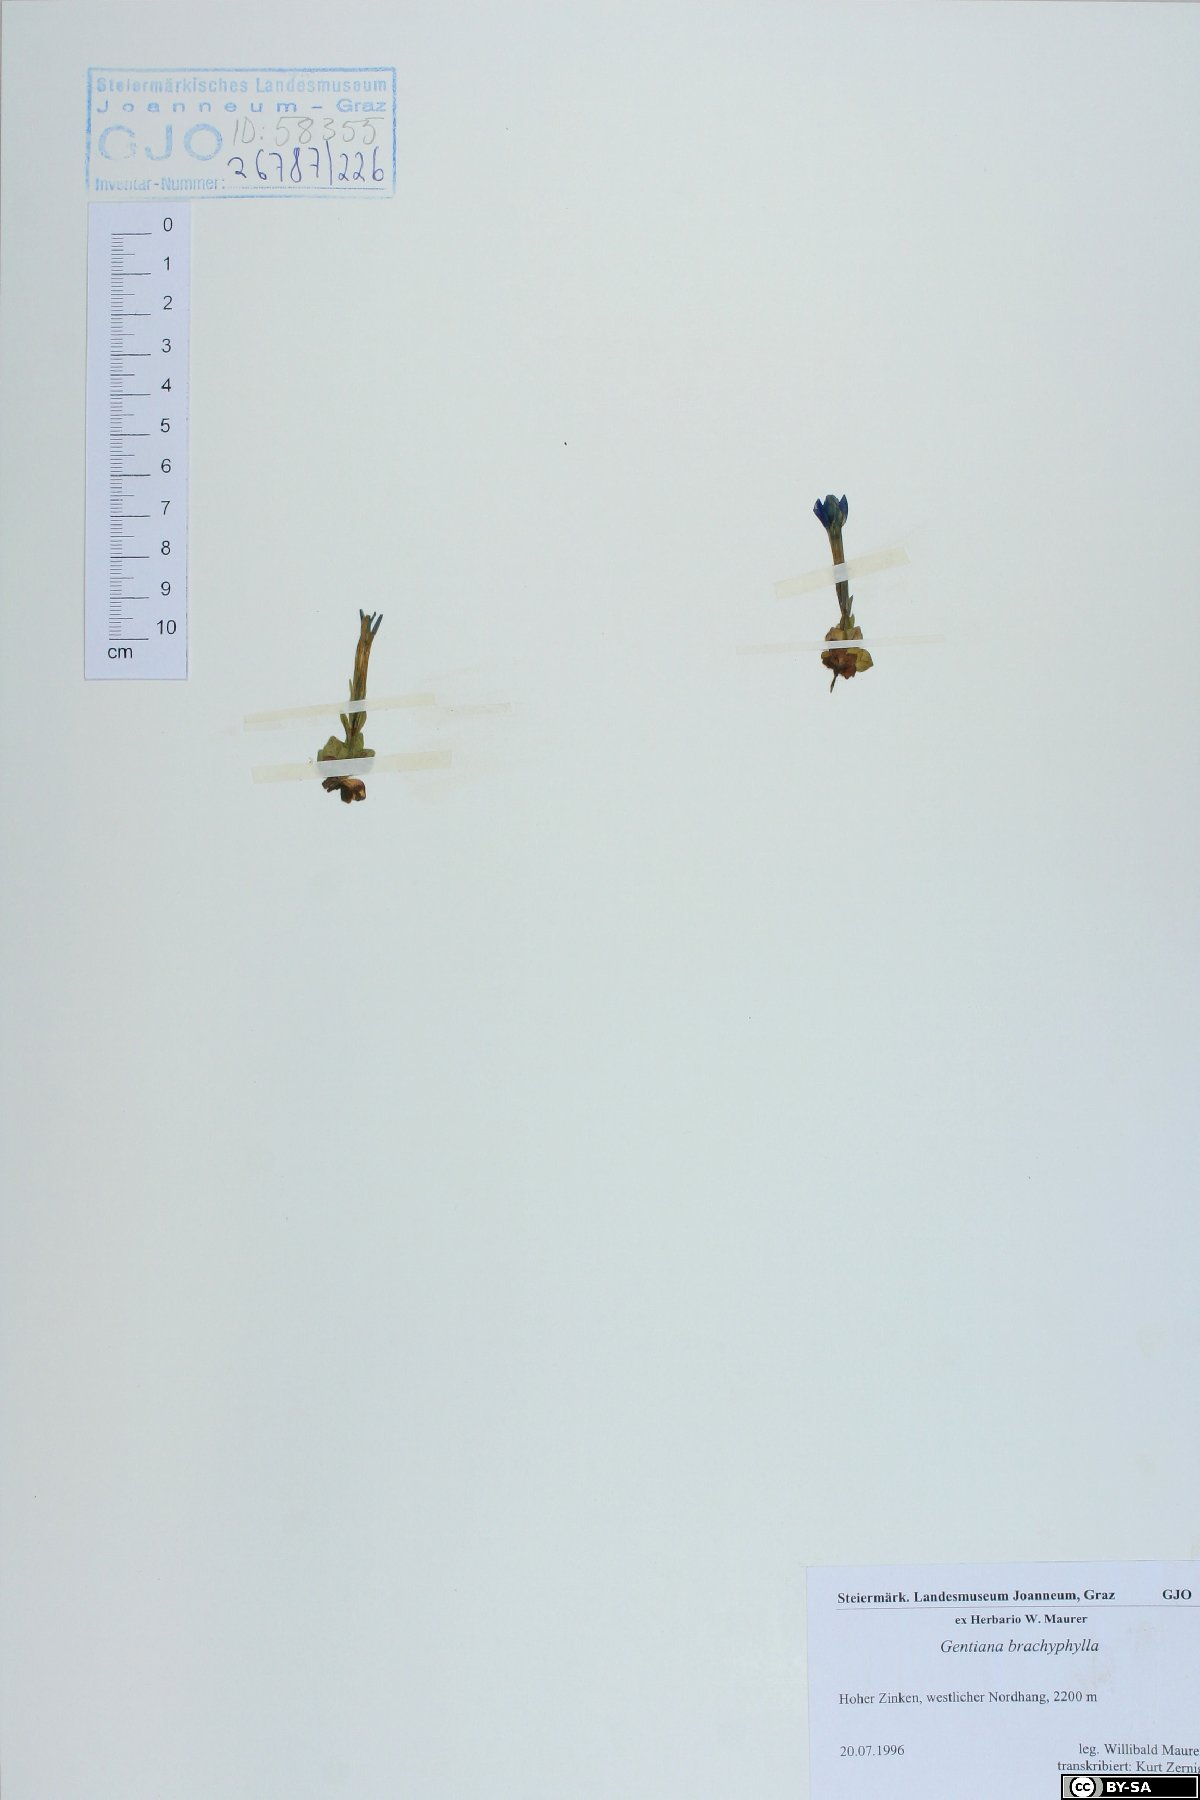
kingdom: Plantae
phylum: Tracheophyta
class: Magnoliopsida
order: Gentianales
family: Gentianaceae
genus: Gentiana
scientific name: Gentiana brachyphylla
